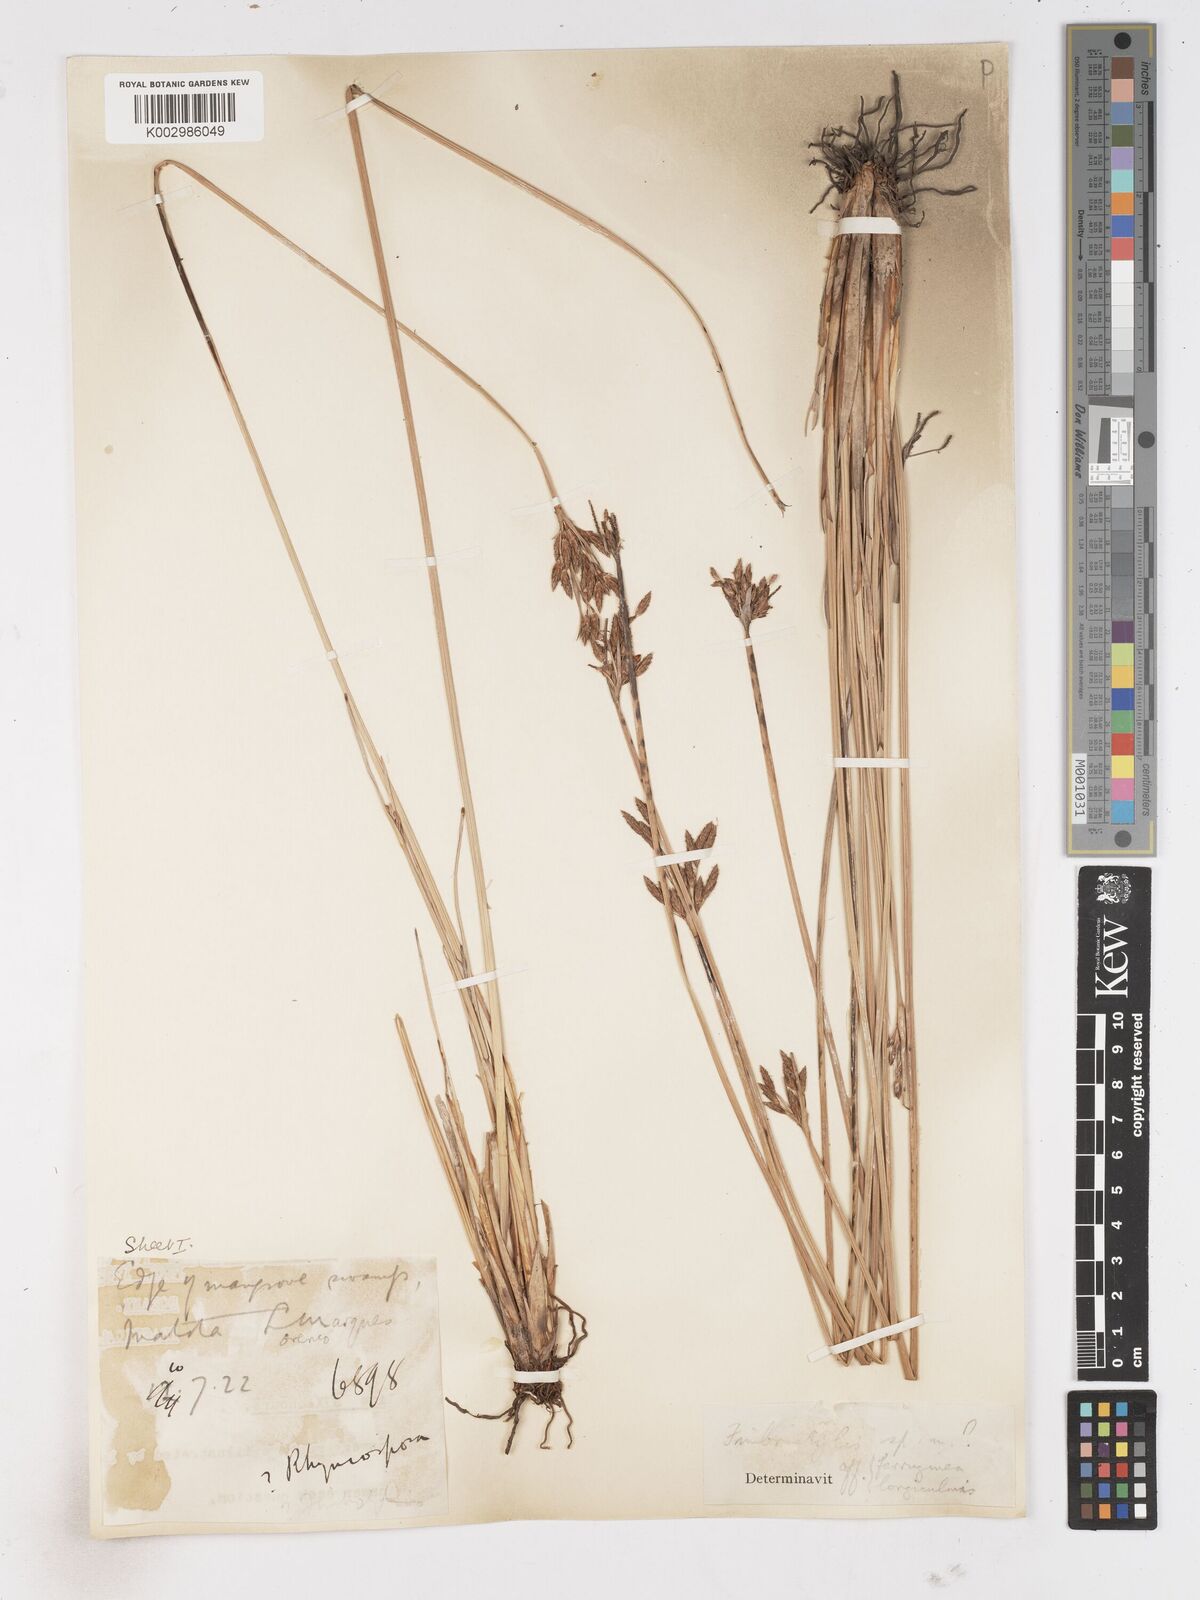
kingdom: Plantae
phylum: Tracheophyta
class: Liliopsida
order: Poales
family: Cyperaceae
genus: Fimbristylis
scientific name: Fimbristylis
